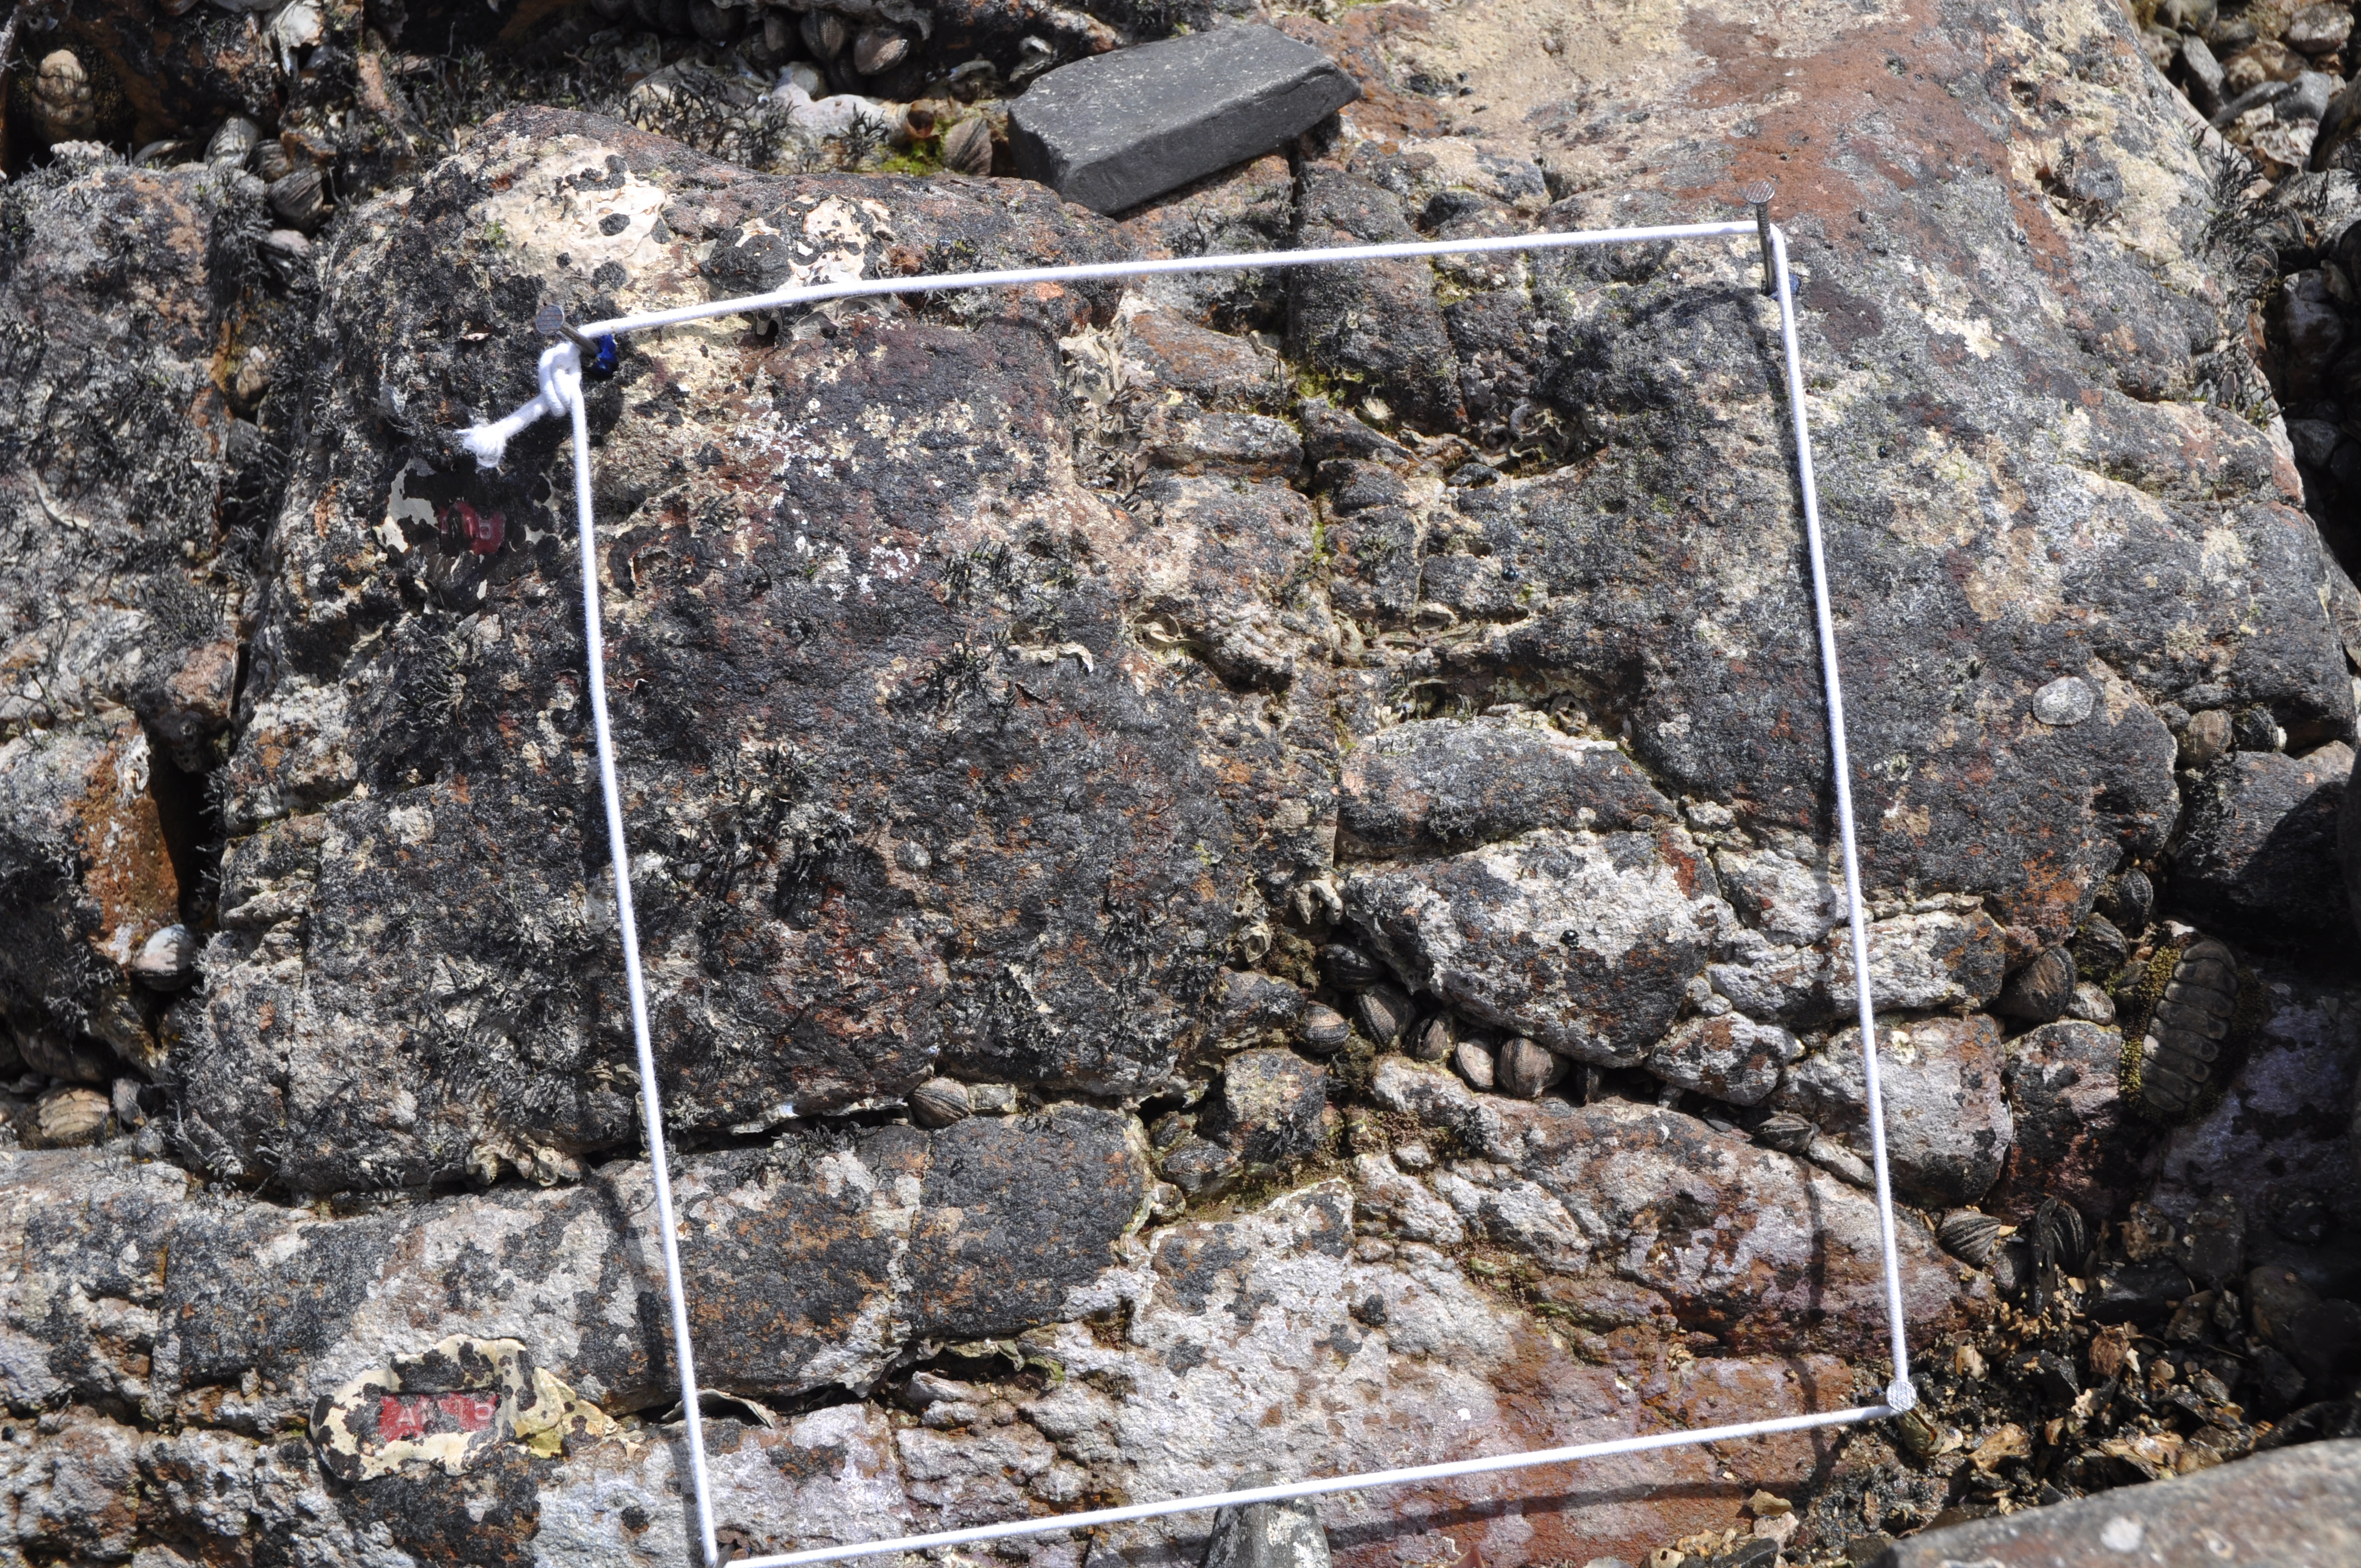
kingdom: Chromista
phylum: Ochrophyta
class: Phaeophyceae
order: Ishigeales
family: Ishigeaceae
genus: Ishige
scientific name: Ishige okamurae
